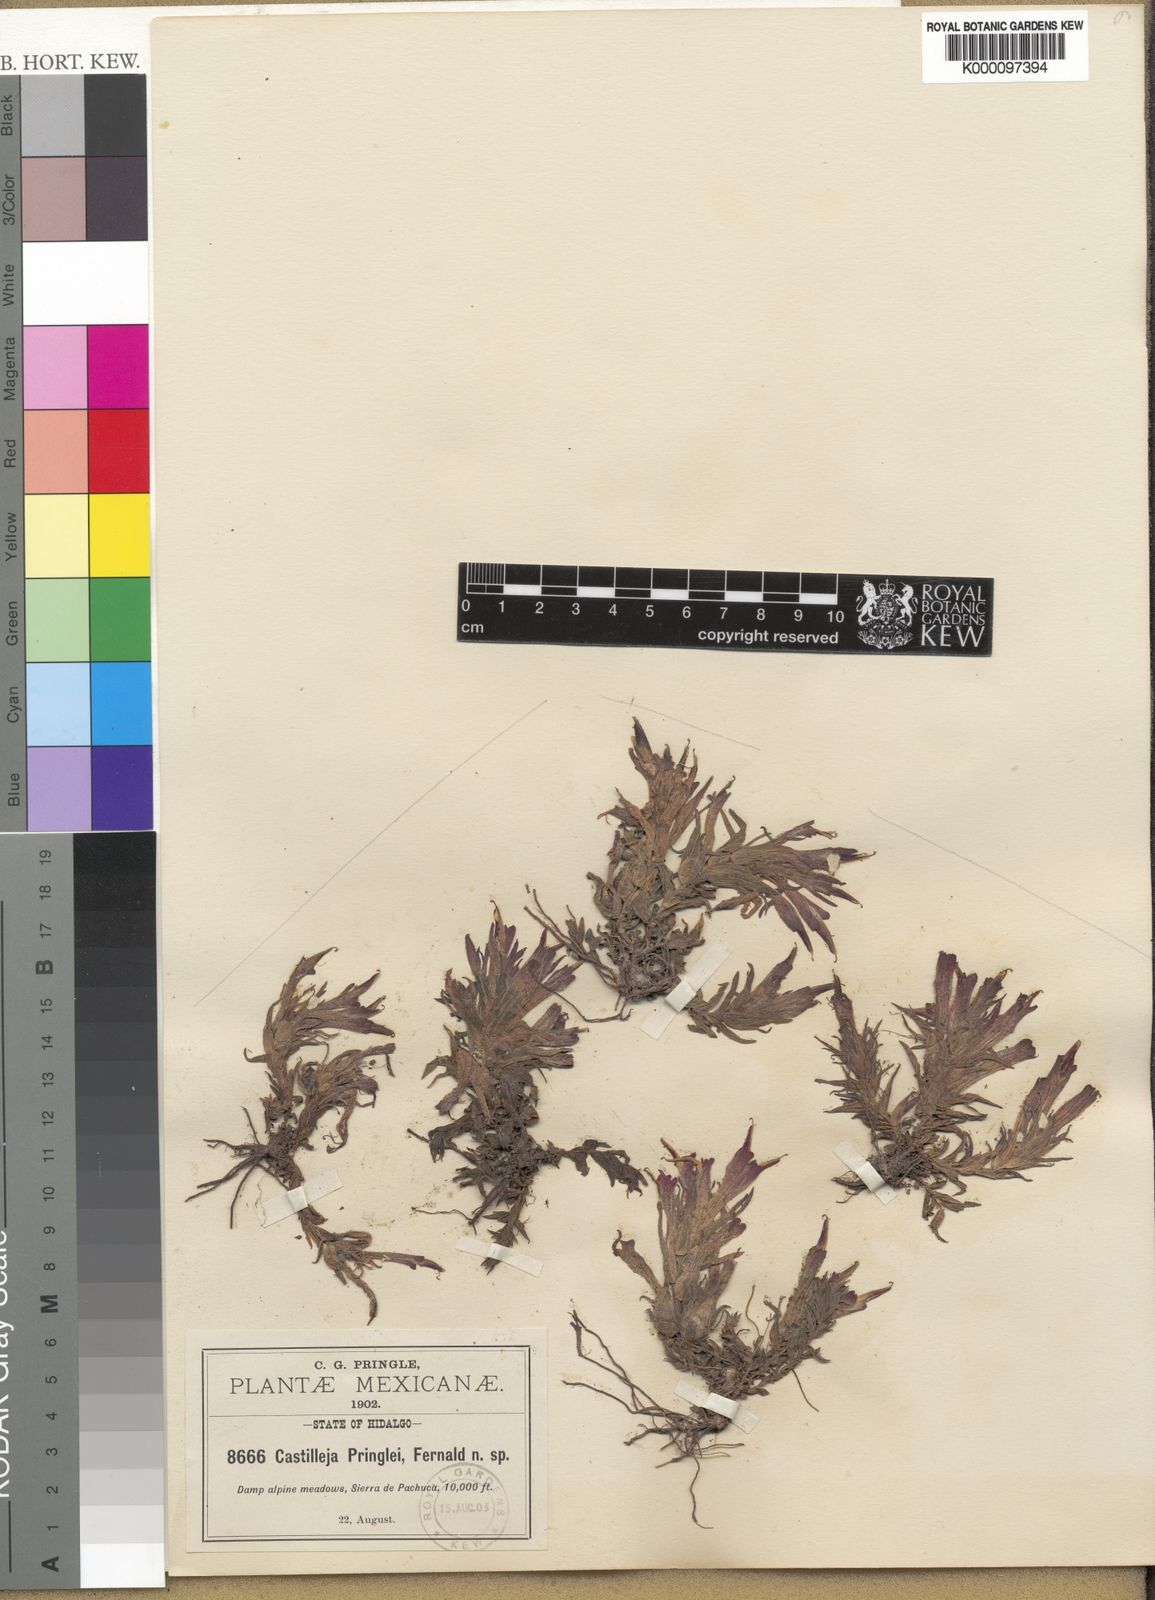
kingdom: Plantae
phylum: Tracheophyta
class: Magnoliopsida
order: Lamiales
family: Orobanchaceae
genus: Castilleja
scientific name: Castilleja moranensis
